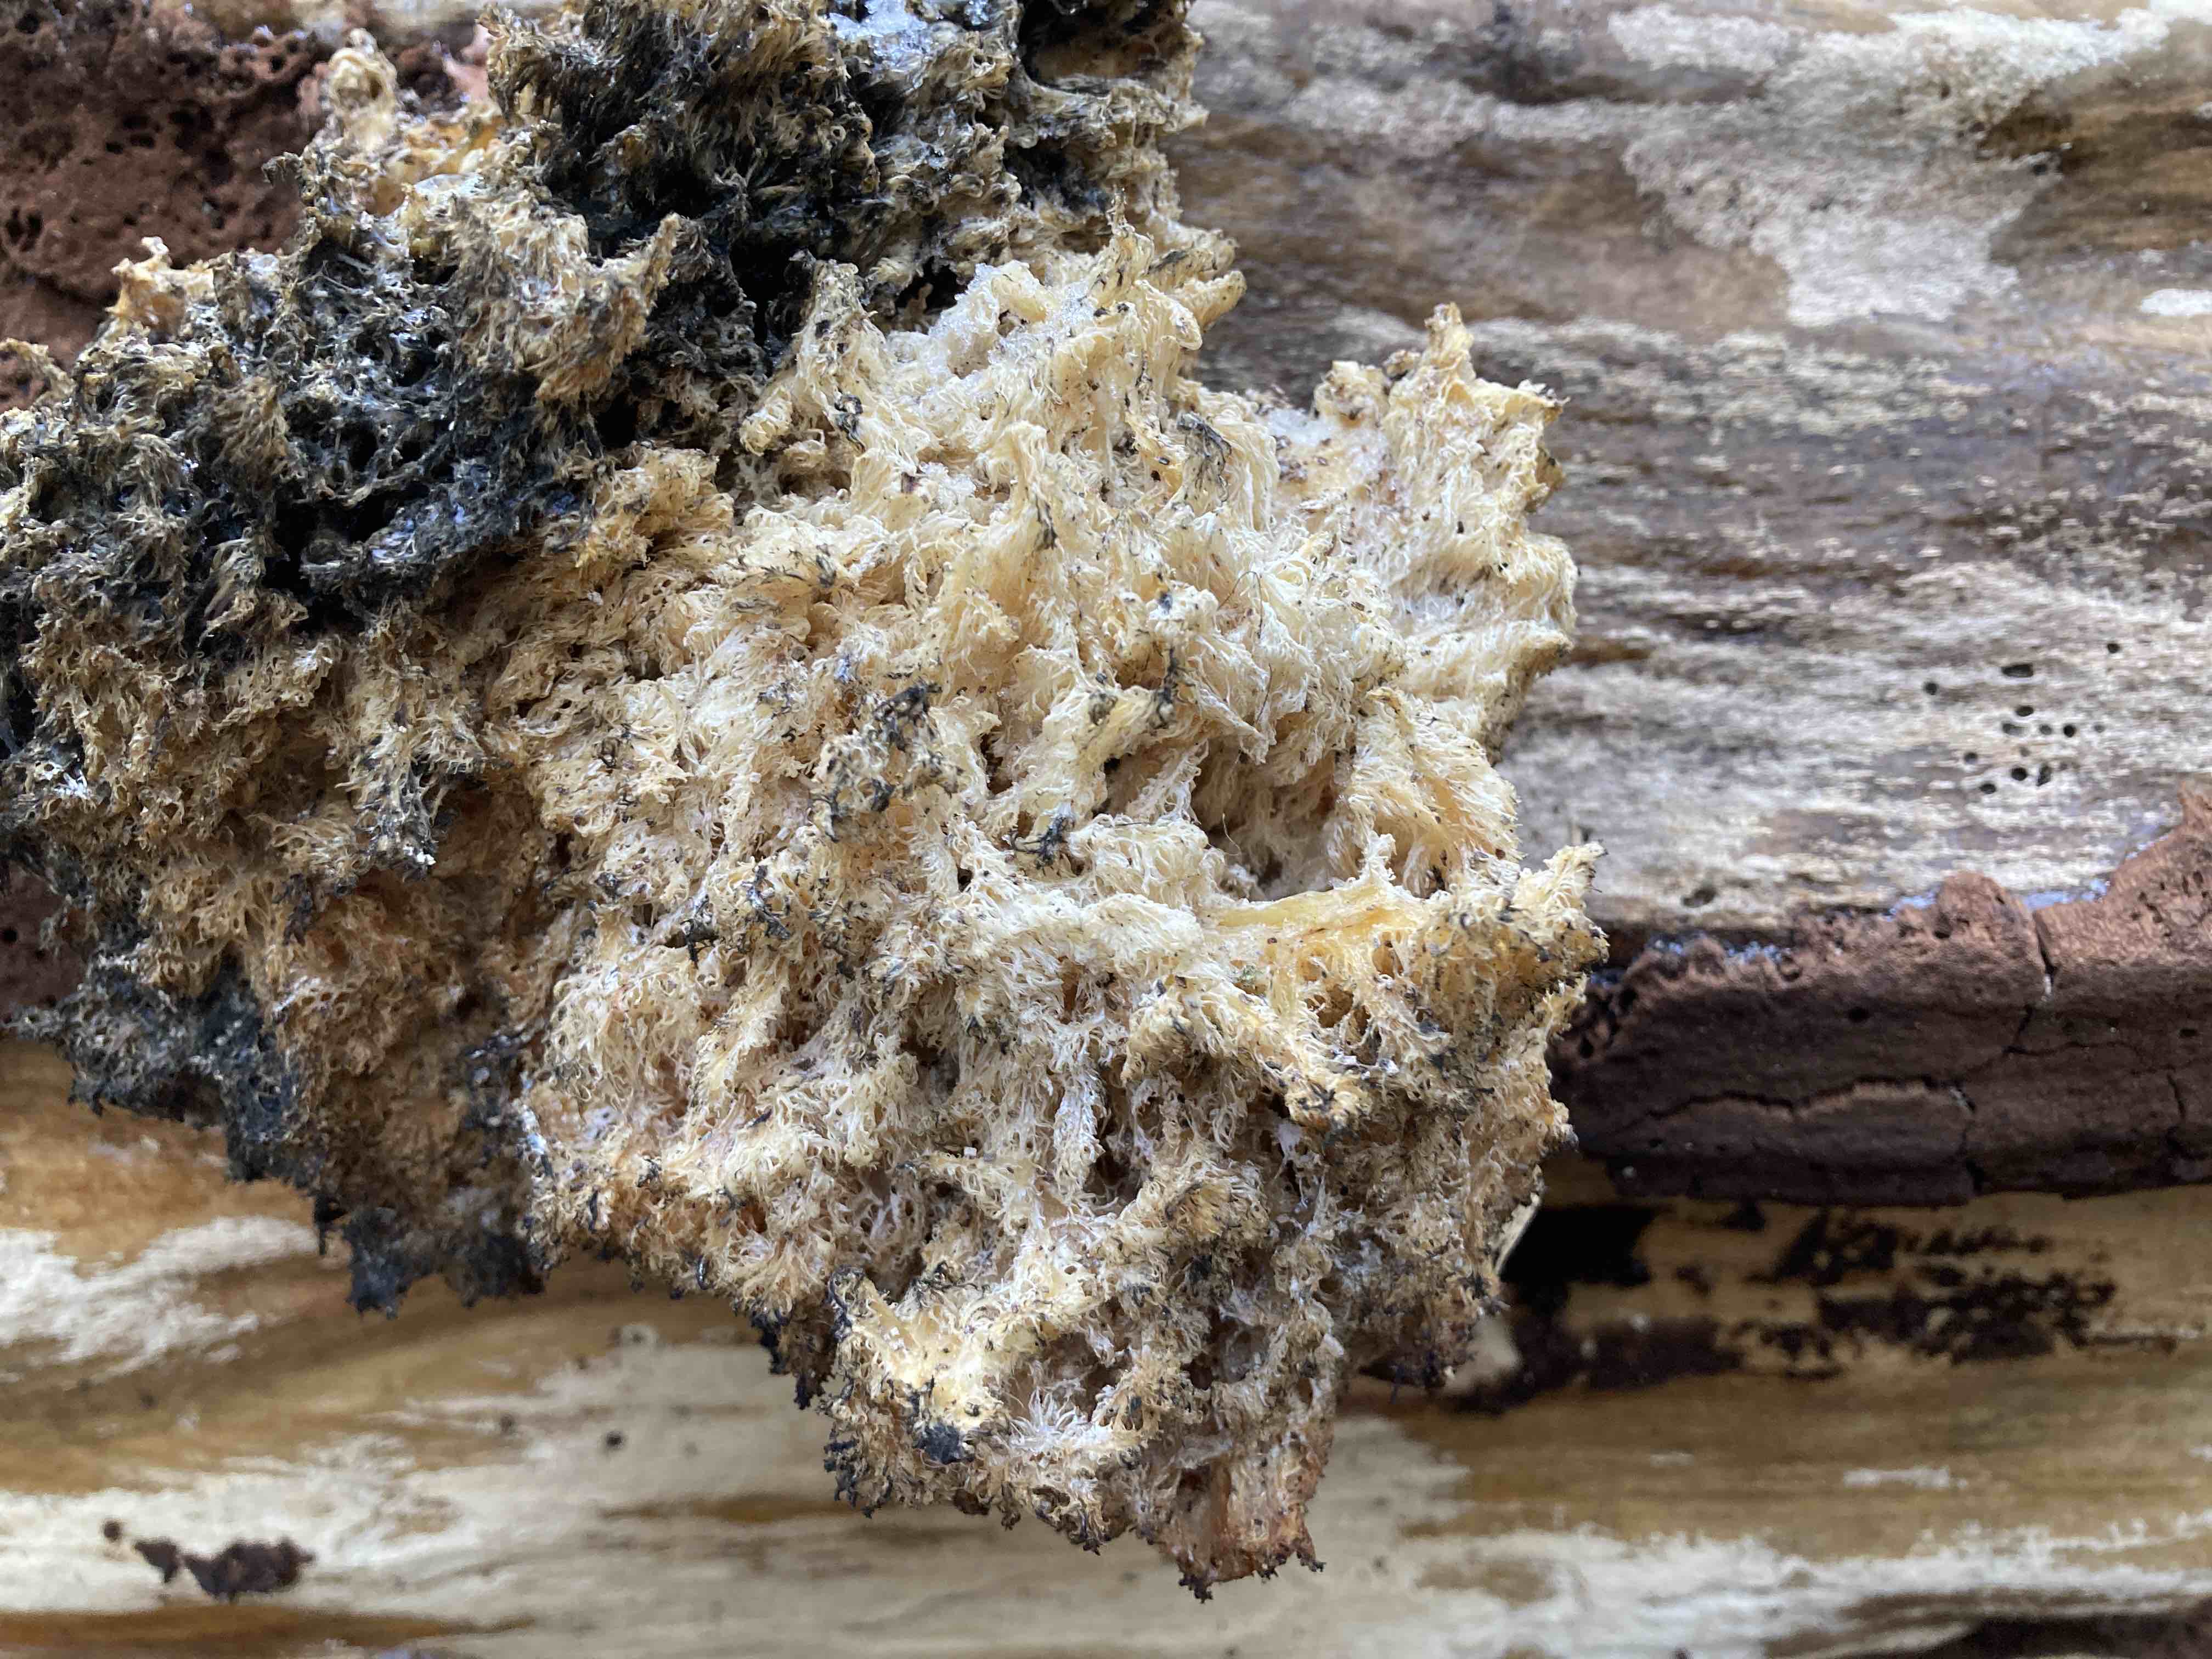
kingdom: Fungi
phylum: Basidiomycota
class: Agaricomycetes
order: Russulales
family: Hericiaceae
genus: Hericium
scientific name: Hericium coralloides
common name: koralpigsvamp
